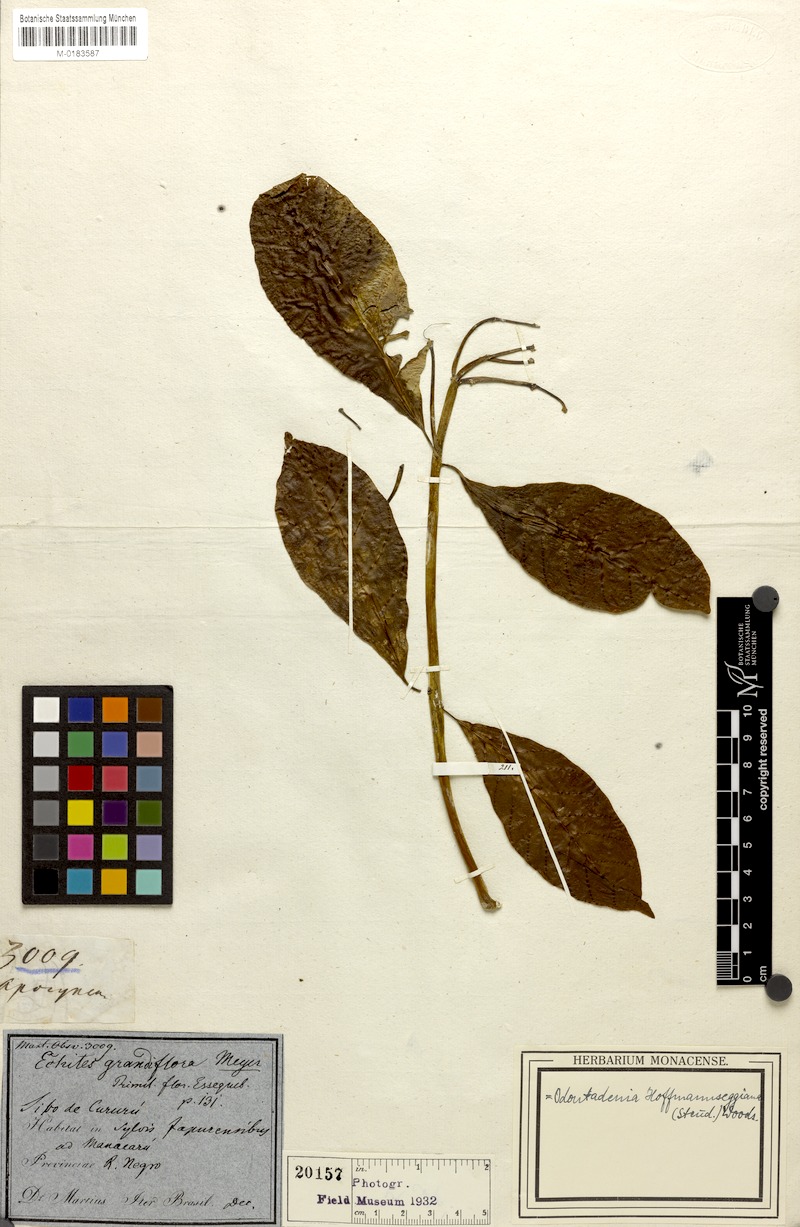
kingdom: Plantae
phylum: Tracheophyta
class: Magnoliopsida
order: Gentianales
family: Apocynaceae
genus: Odontadenia
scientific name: Odontadenia semidigyna
